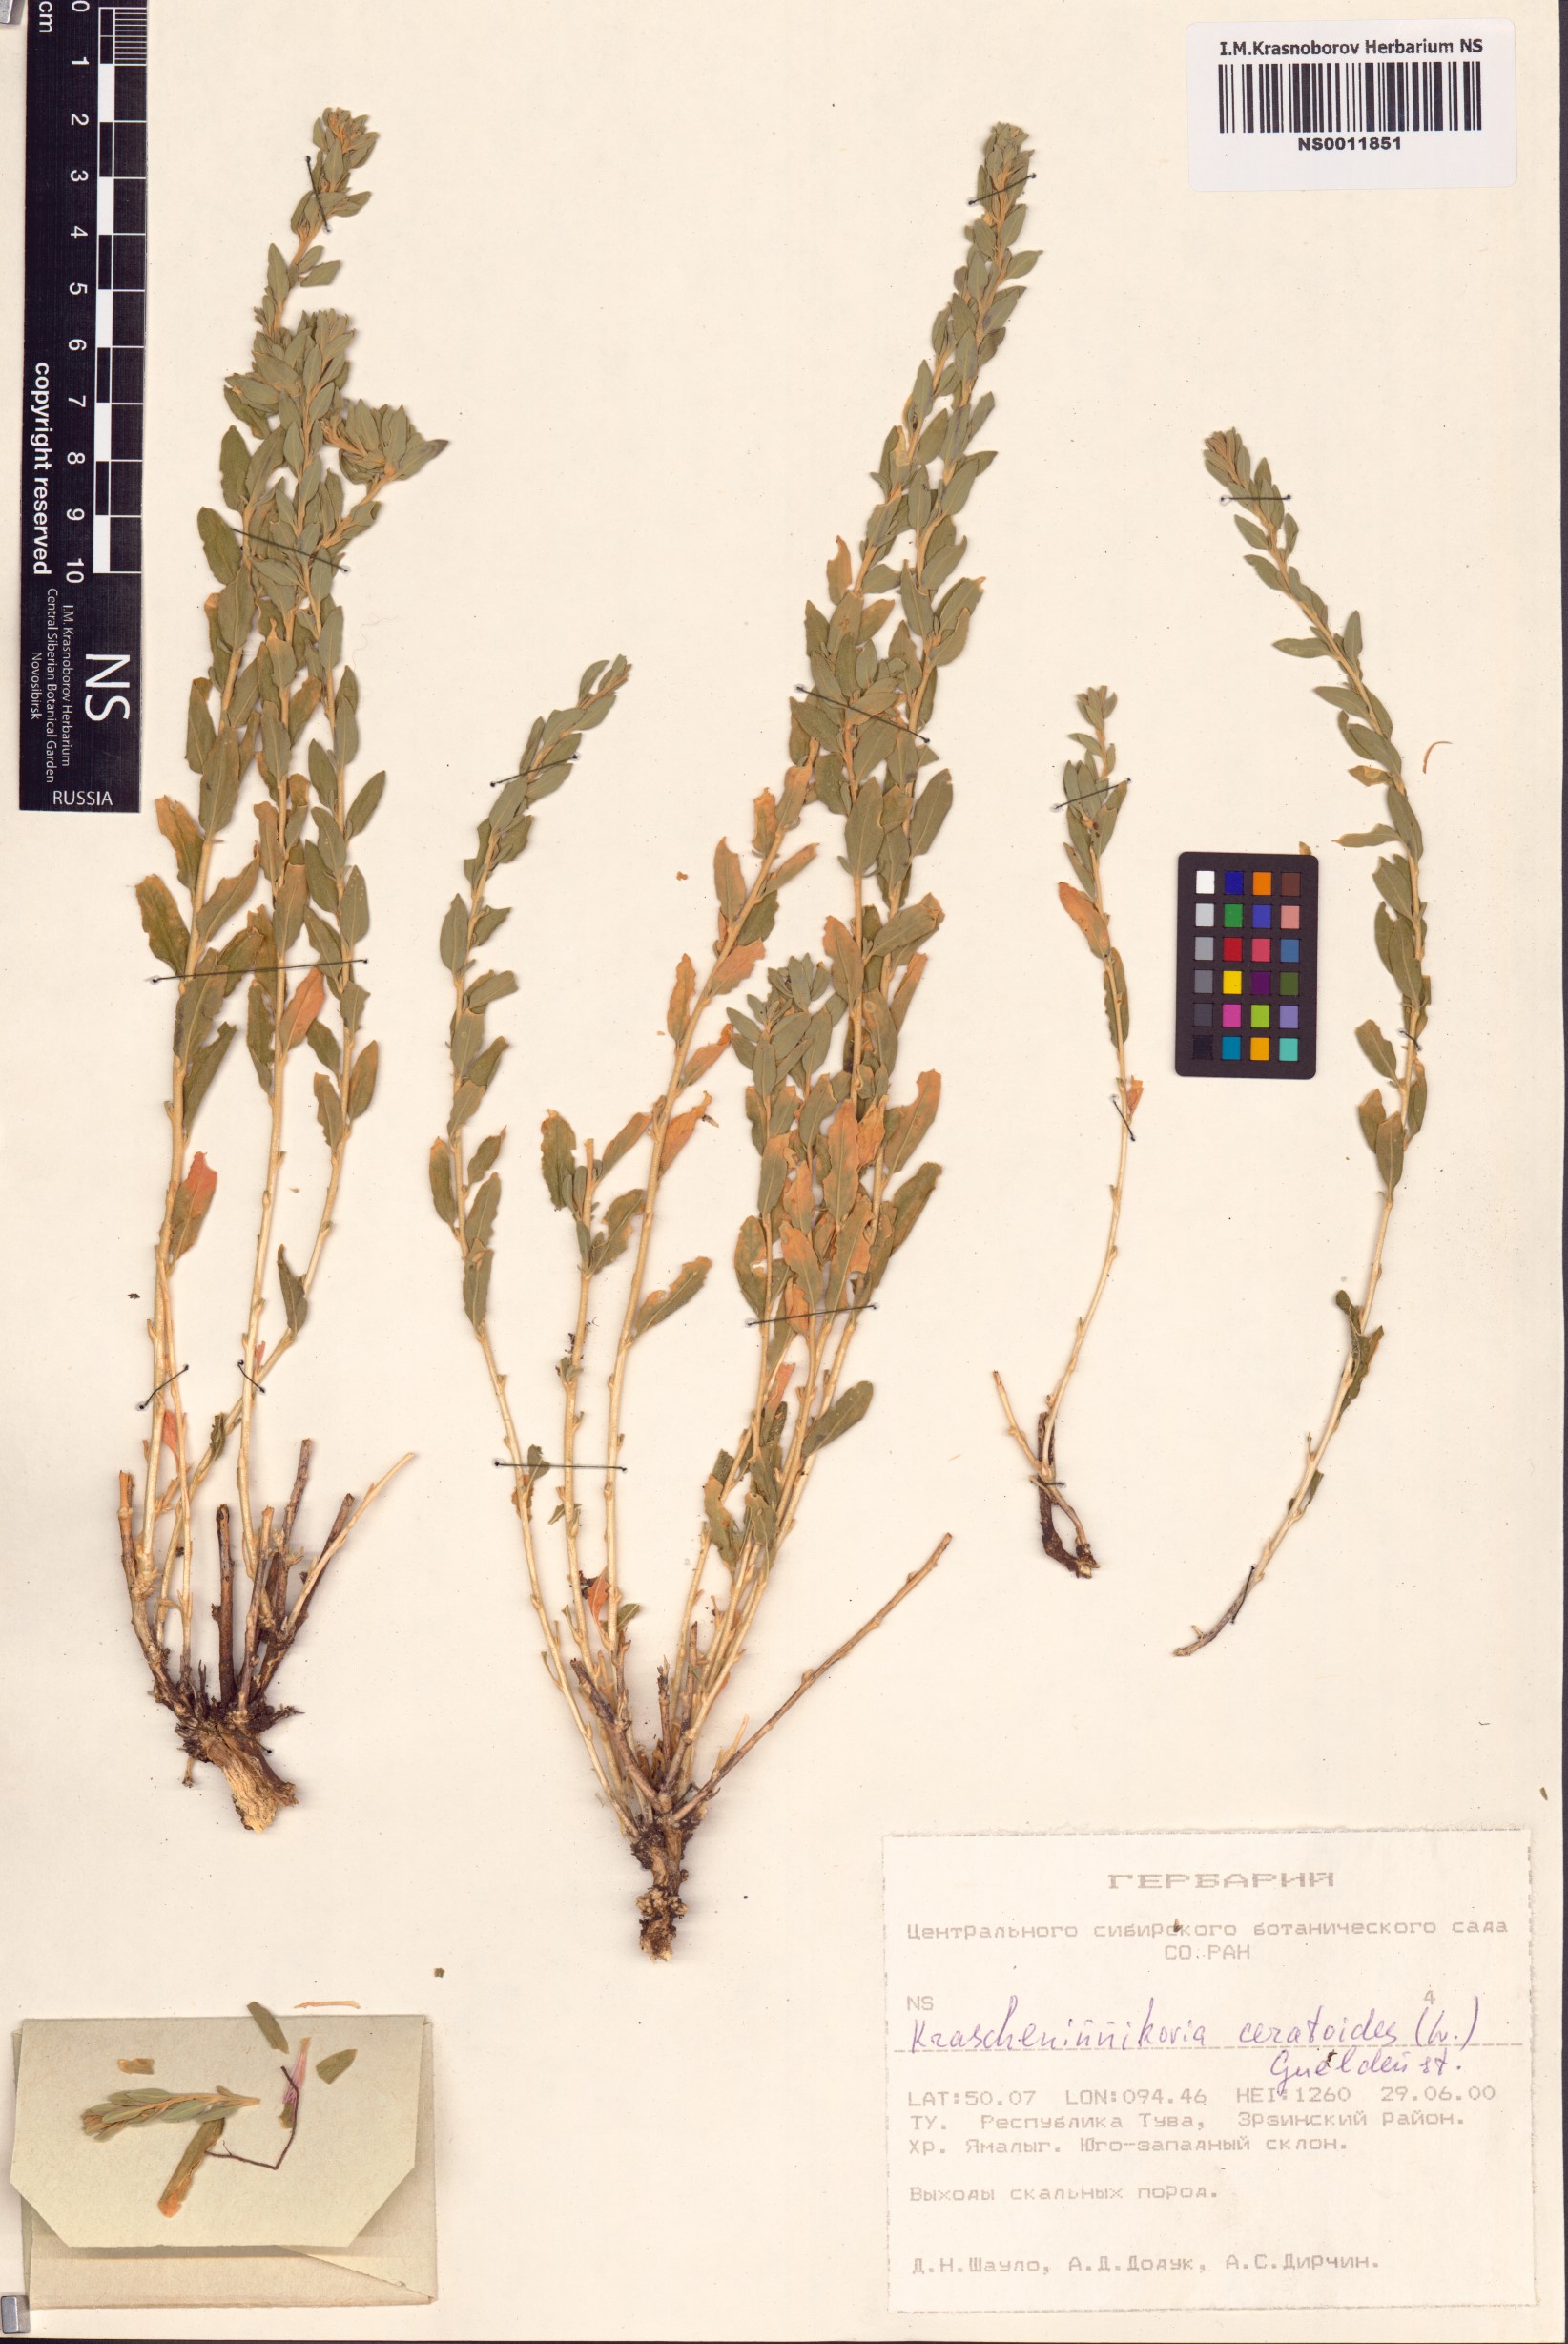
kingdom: Plantae
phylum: Tracheophyta
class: Magnoliopsida
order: Caryophyllales
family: Amaranthaceae
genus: Krascheninnikovia
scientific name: Krascheninnikovia ceratoides
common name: Pamirian winterfat
